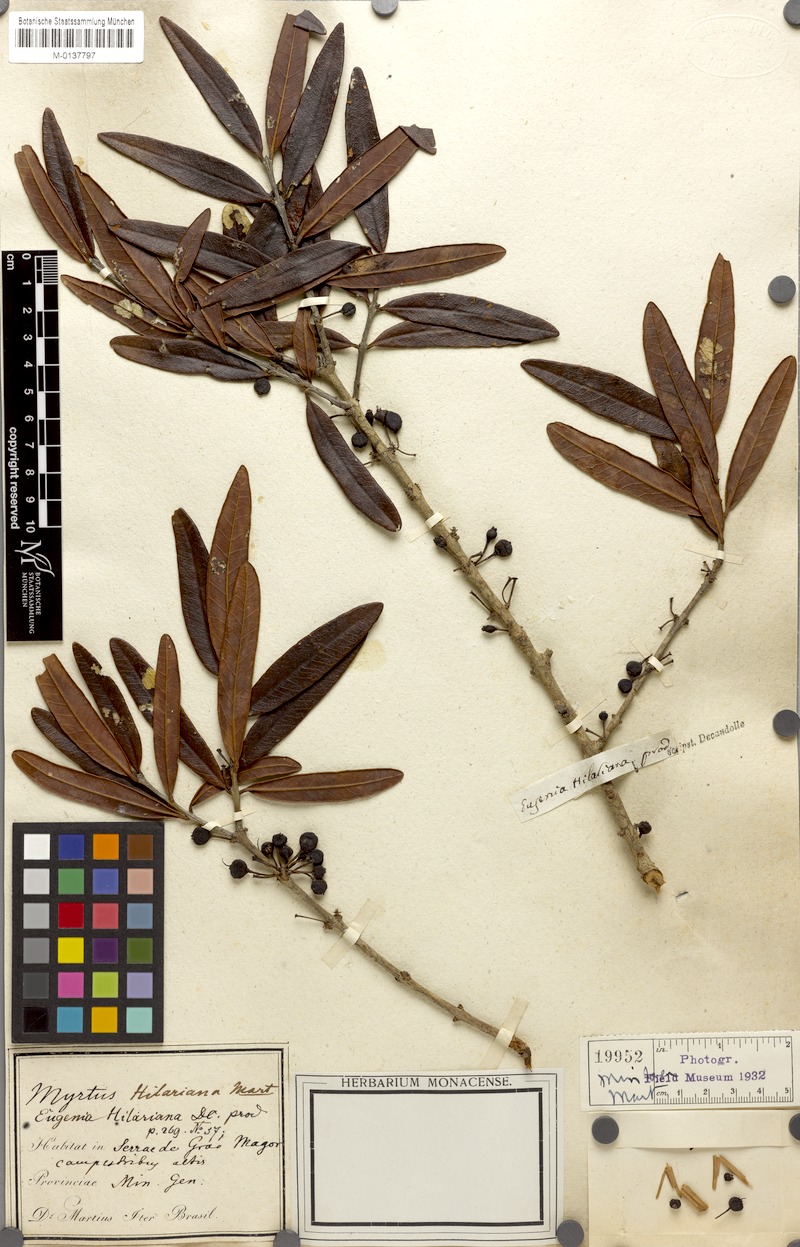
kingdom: Plantae
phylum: Tracheophyta
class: Magnoliopsida
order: Myrtales
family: Myrtaceae
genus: Eugenia
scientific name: Eugenia hilariana
